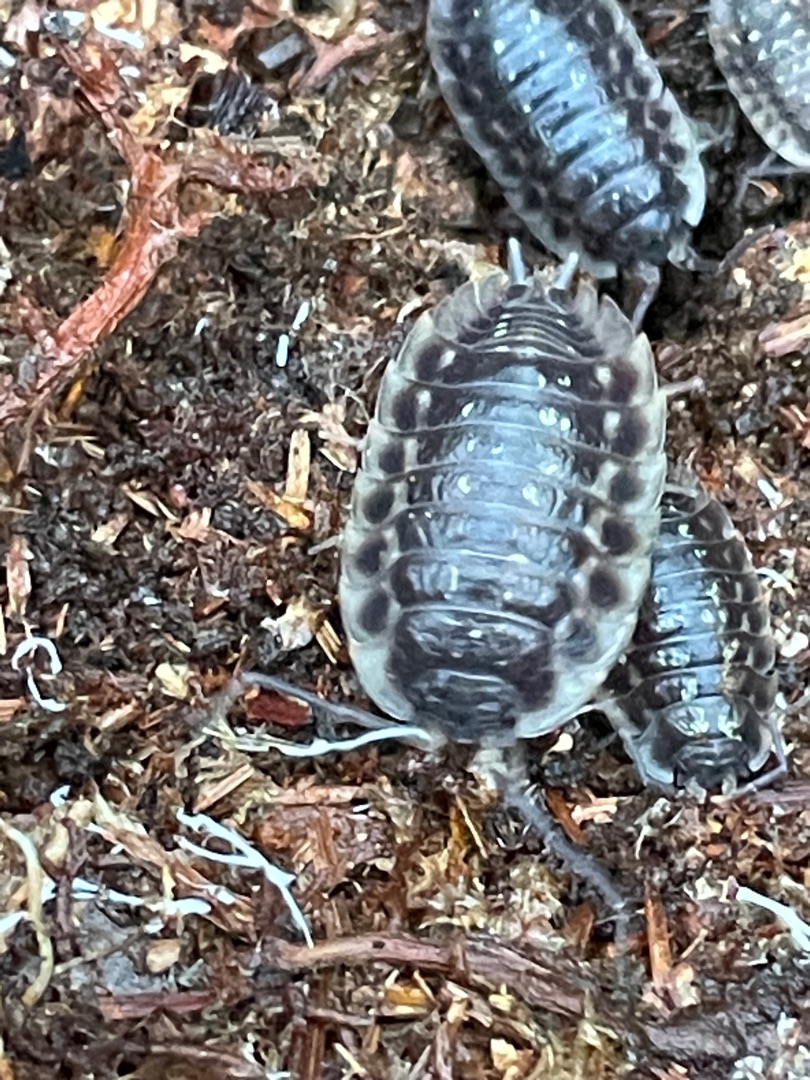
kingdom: Animalia
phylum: Arthropoda
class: Malacostraca
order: Isopoda
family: Oniscidae
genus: Oniscus
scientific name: Oniscus asellus
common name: Glat bænkebider
